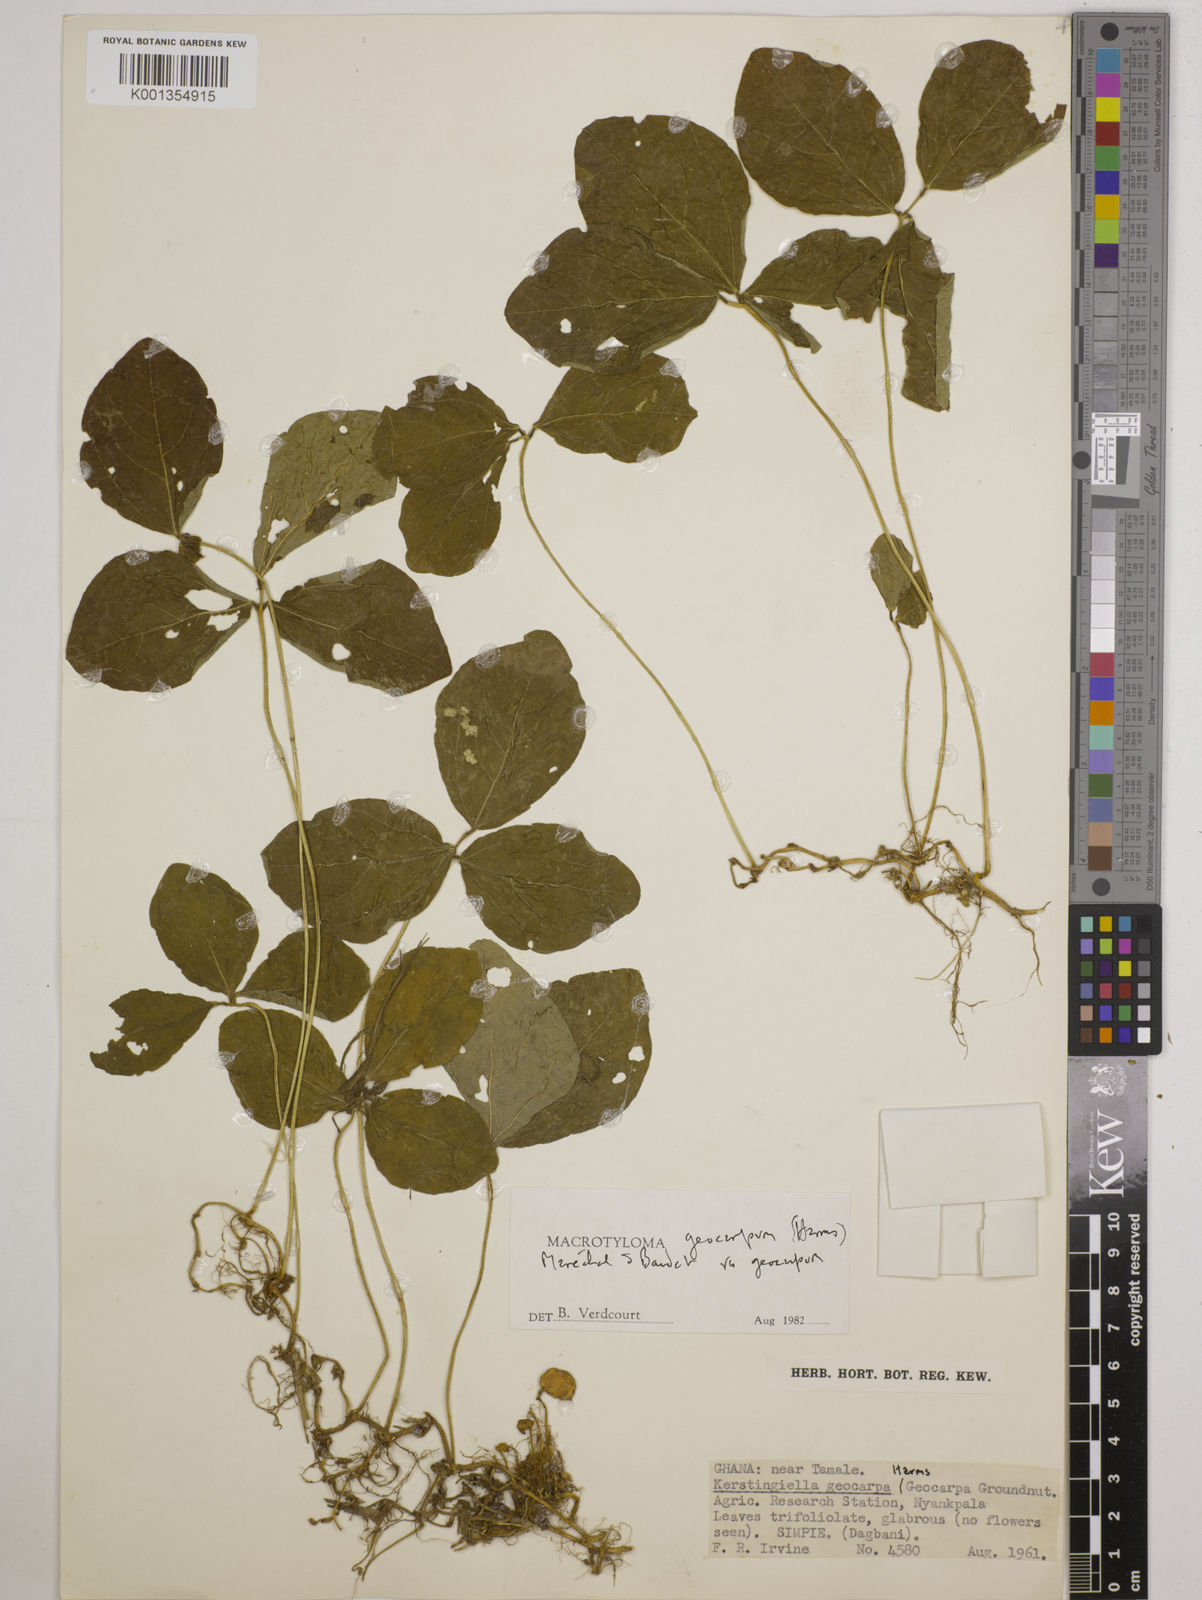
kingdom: Plantae
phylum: Tracheophyta
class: Magnoliopsida
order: Fabales
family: Fabaceae
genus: Macrotyloma
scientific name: Macrotyloma geocarpum
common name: Ground-bean
